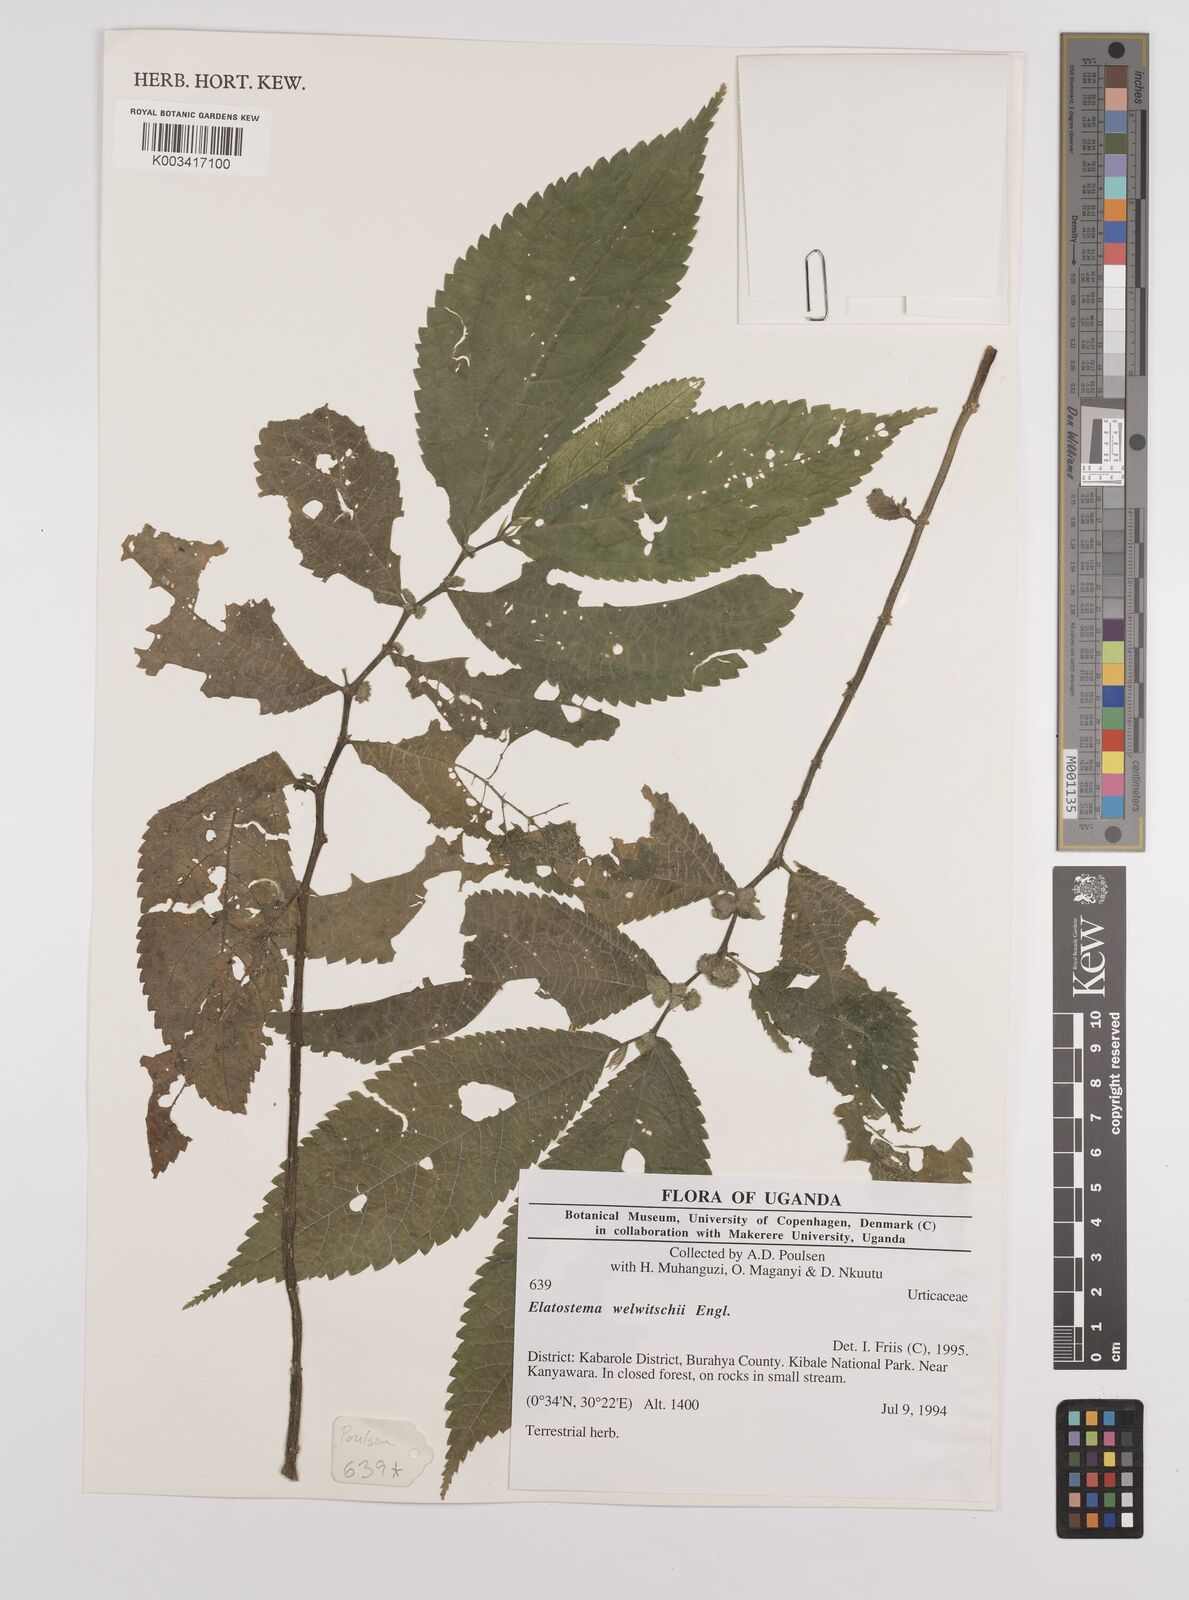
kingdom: Plantae
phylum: Tracheophyta
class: Magnoliopsida
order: Rosales
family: Urticaceae
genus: Elatostema
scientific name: Elatostema welwitschii
